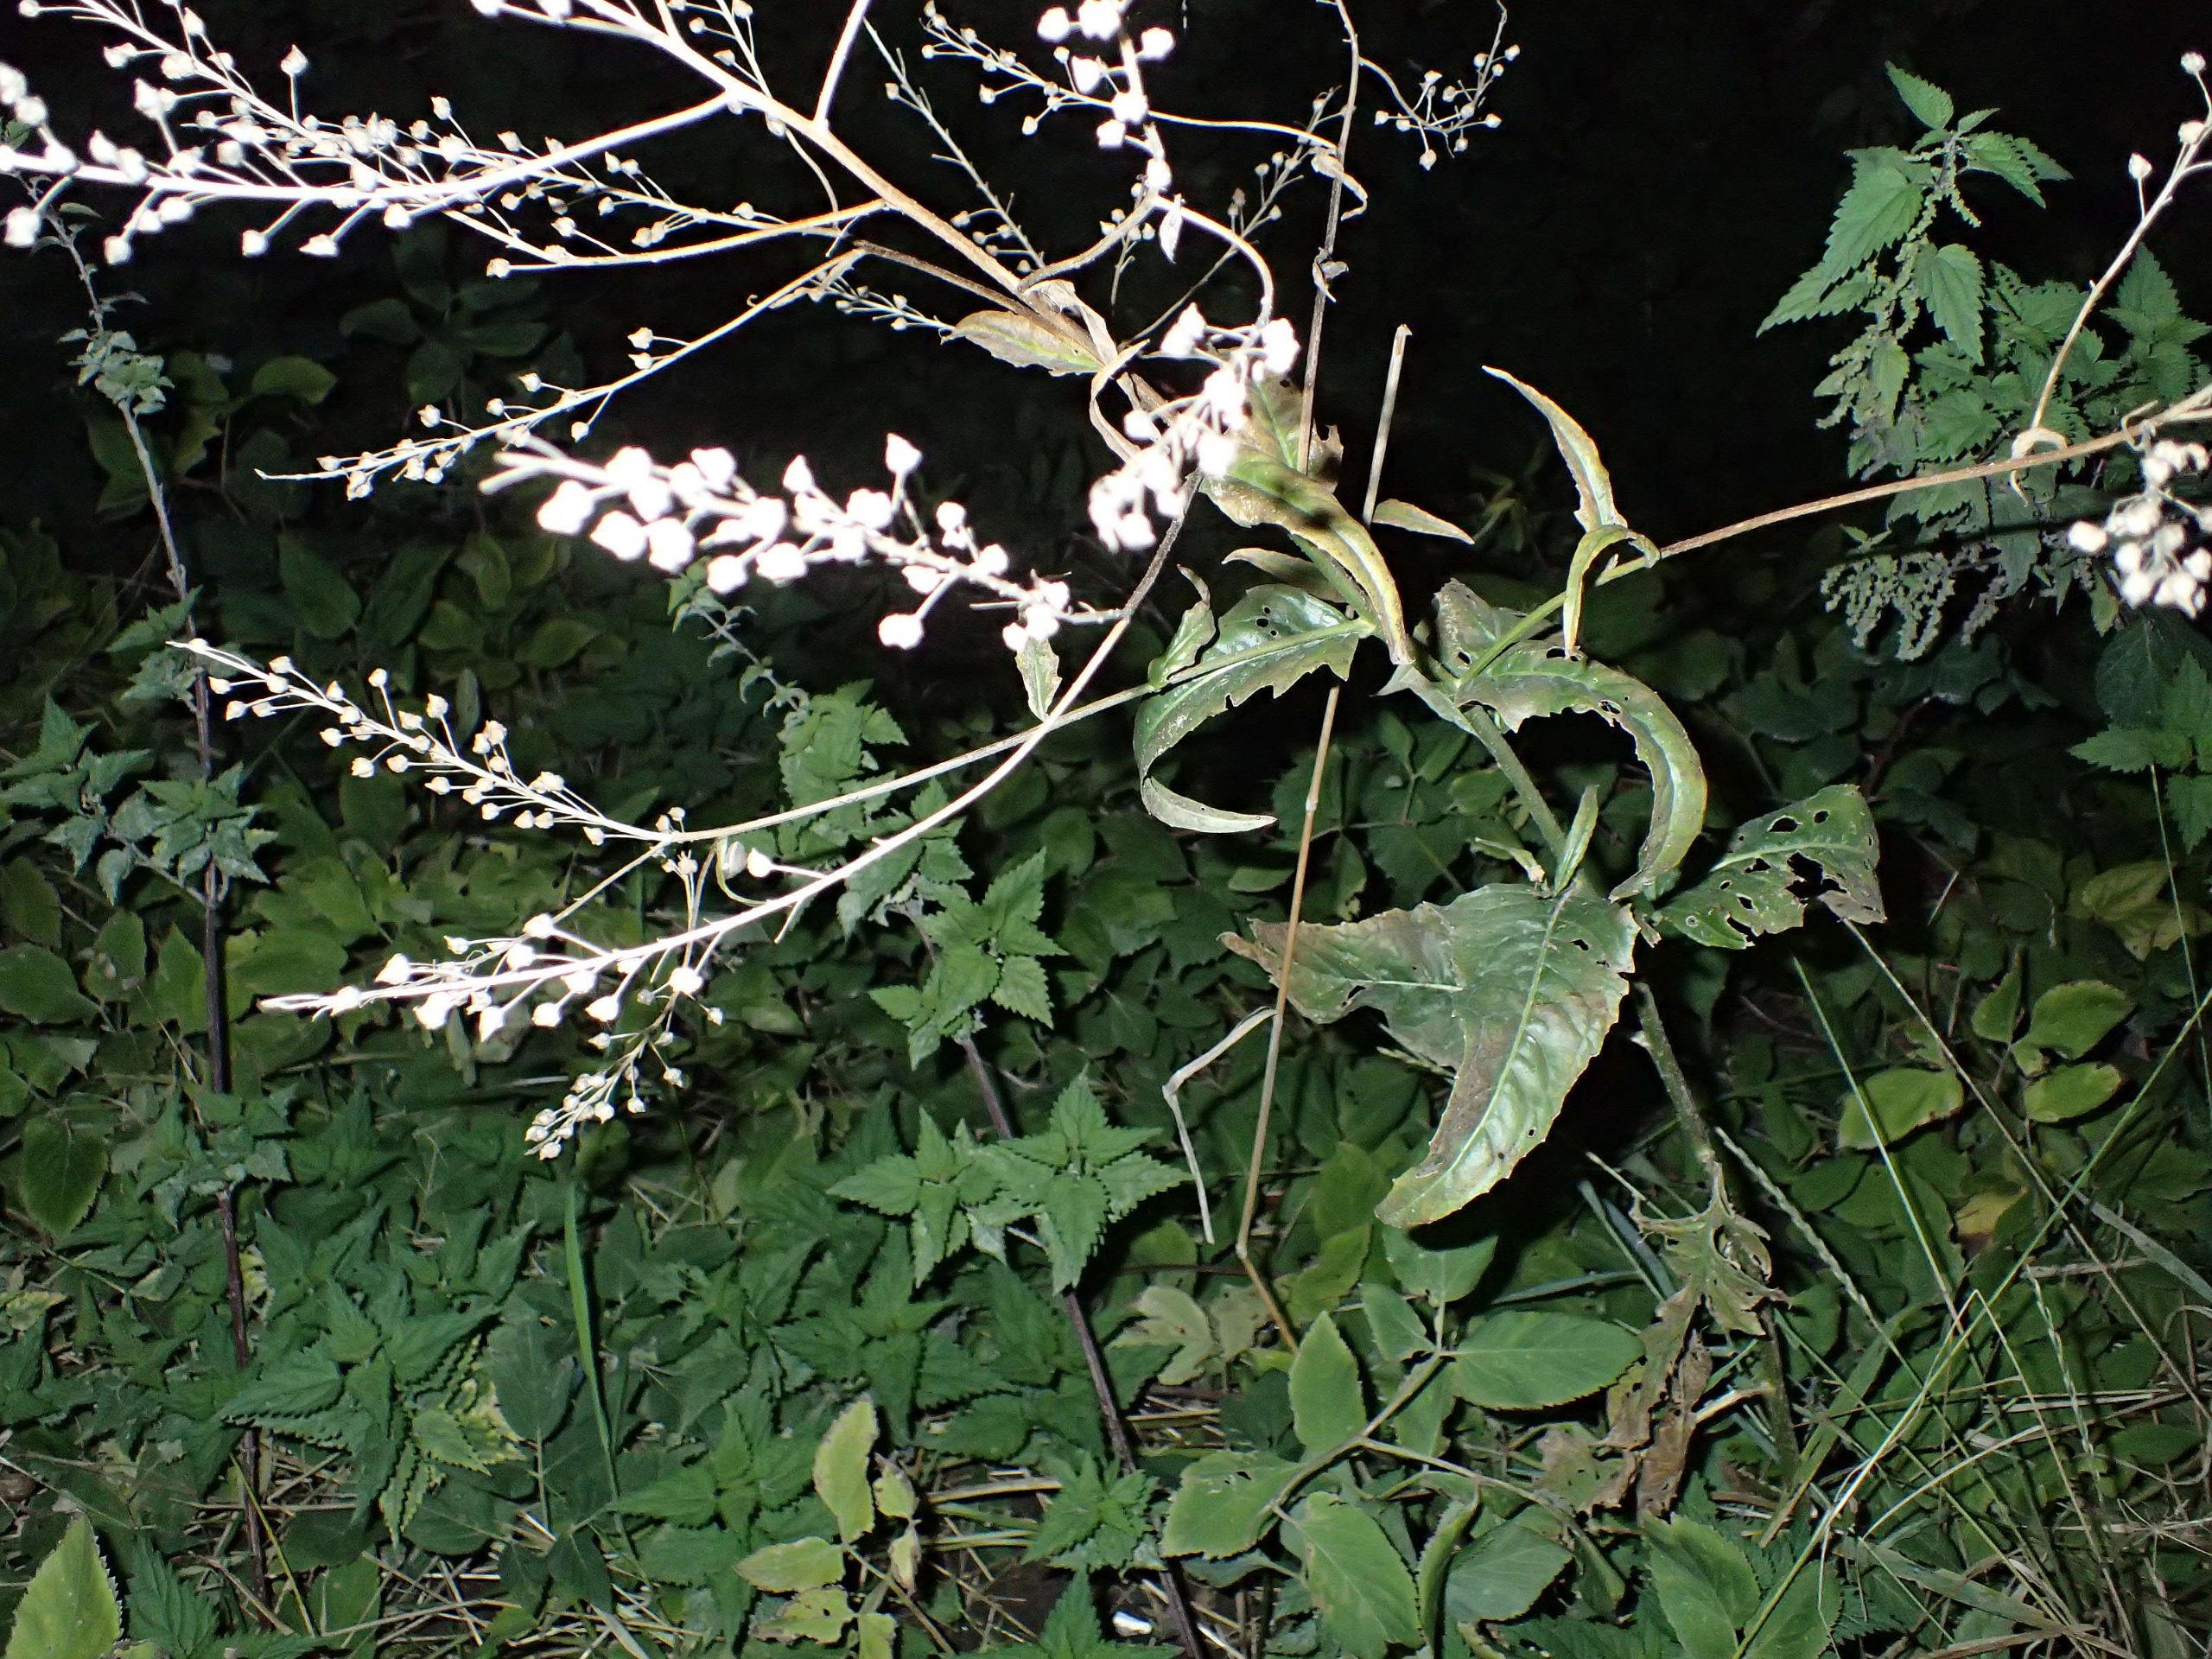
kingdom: Plantae
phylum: Tracheophyta
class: Magnoliopsida
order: Brassicales
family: Brassicaceae
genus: Bunias
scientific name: Bunias orientalis
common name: Takkeklap
